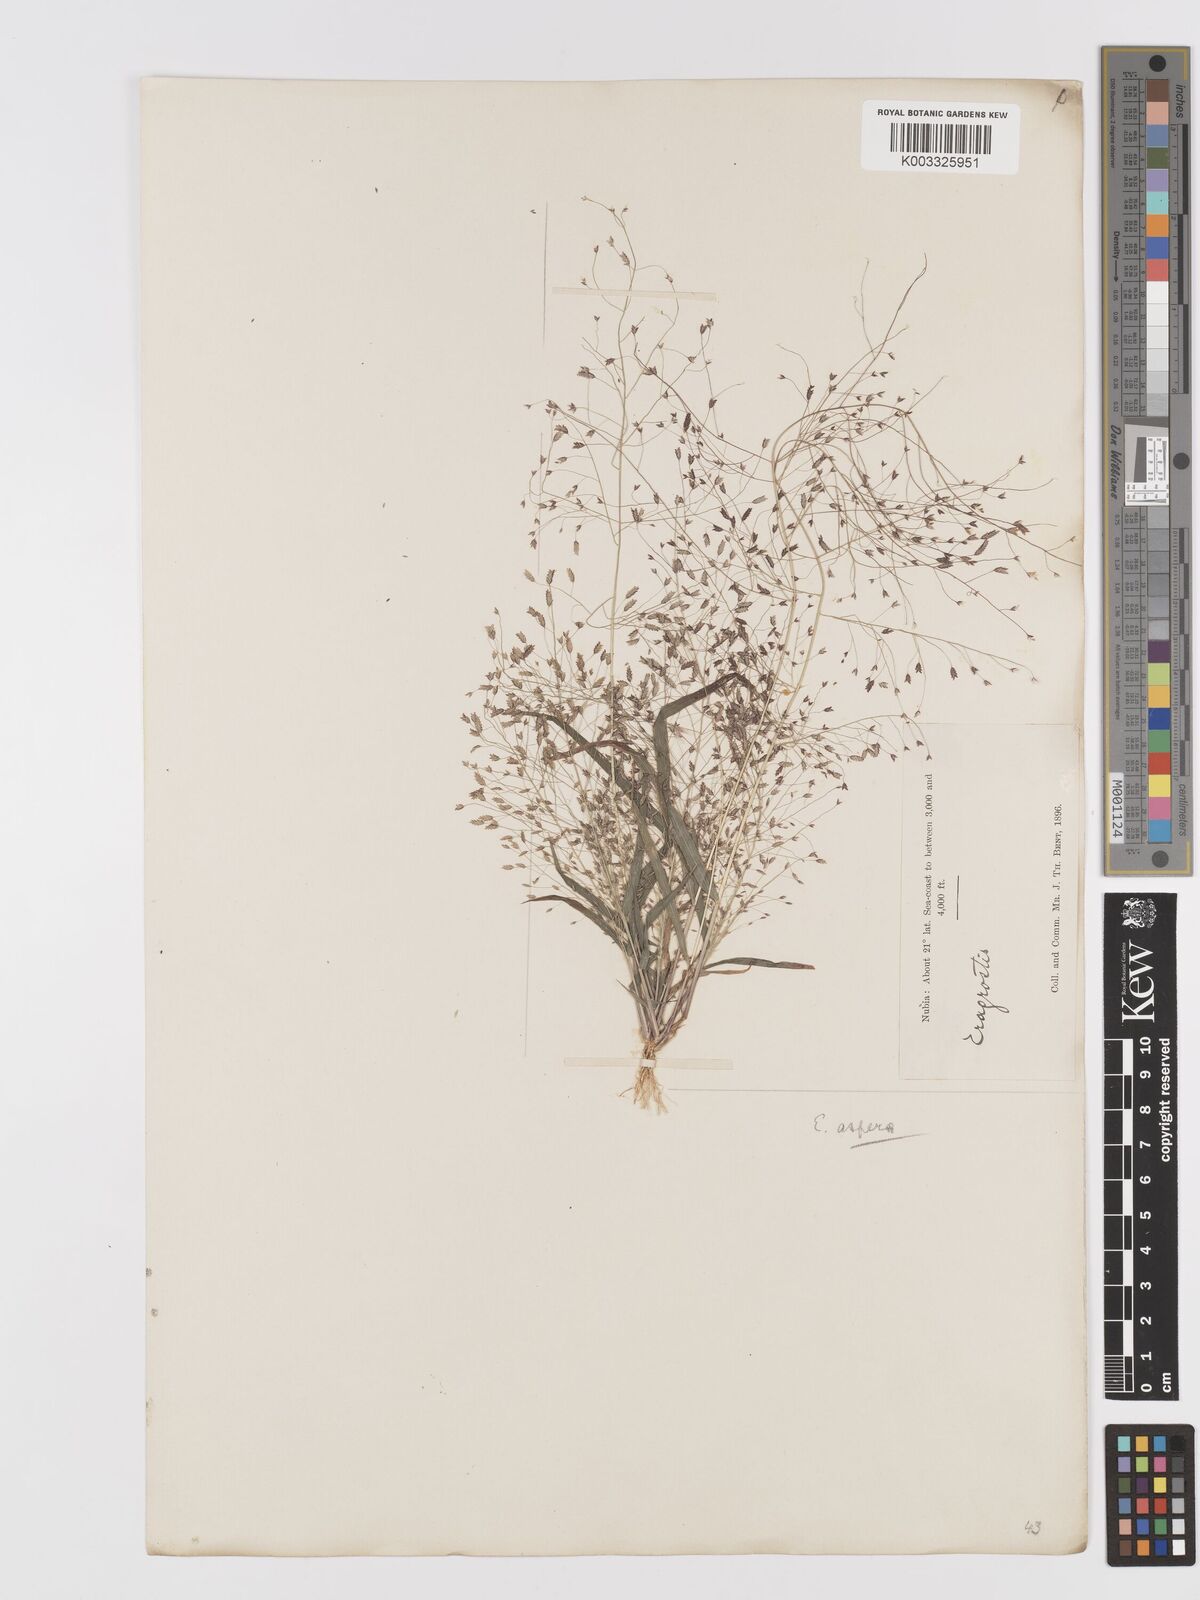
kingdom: Plantae
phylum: Tracheophyta
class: Liliopsida
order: Poales
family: Poaceae
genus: Eragrostis
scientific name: Eragrostis aspera
